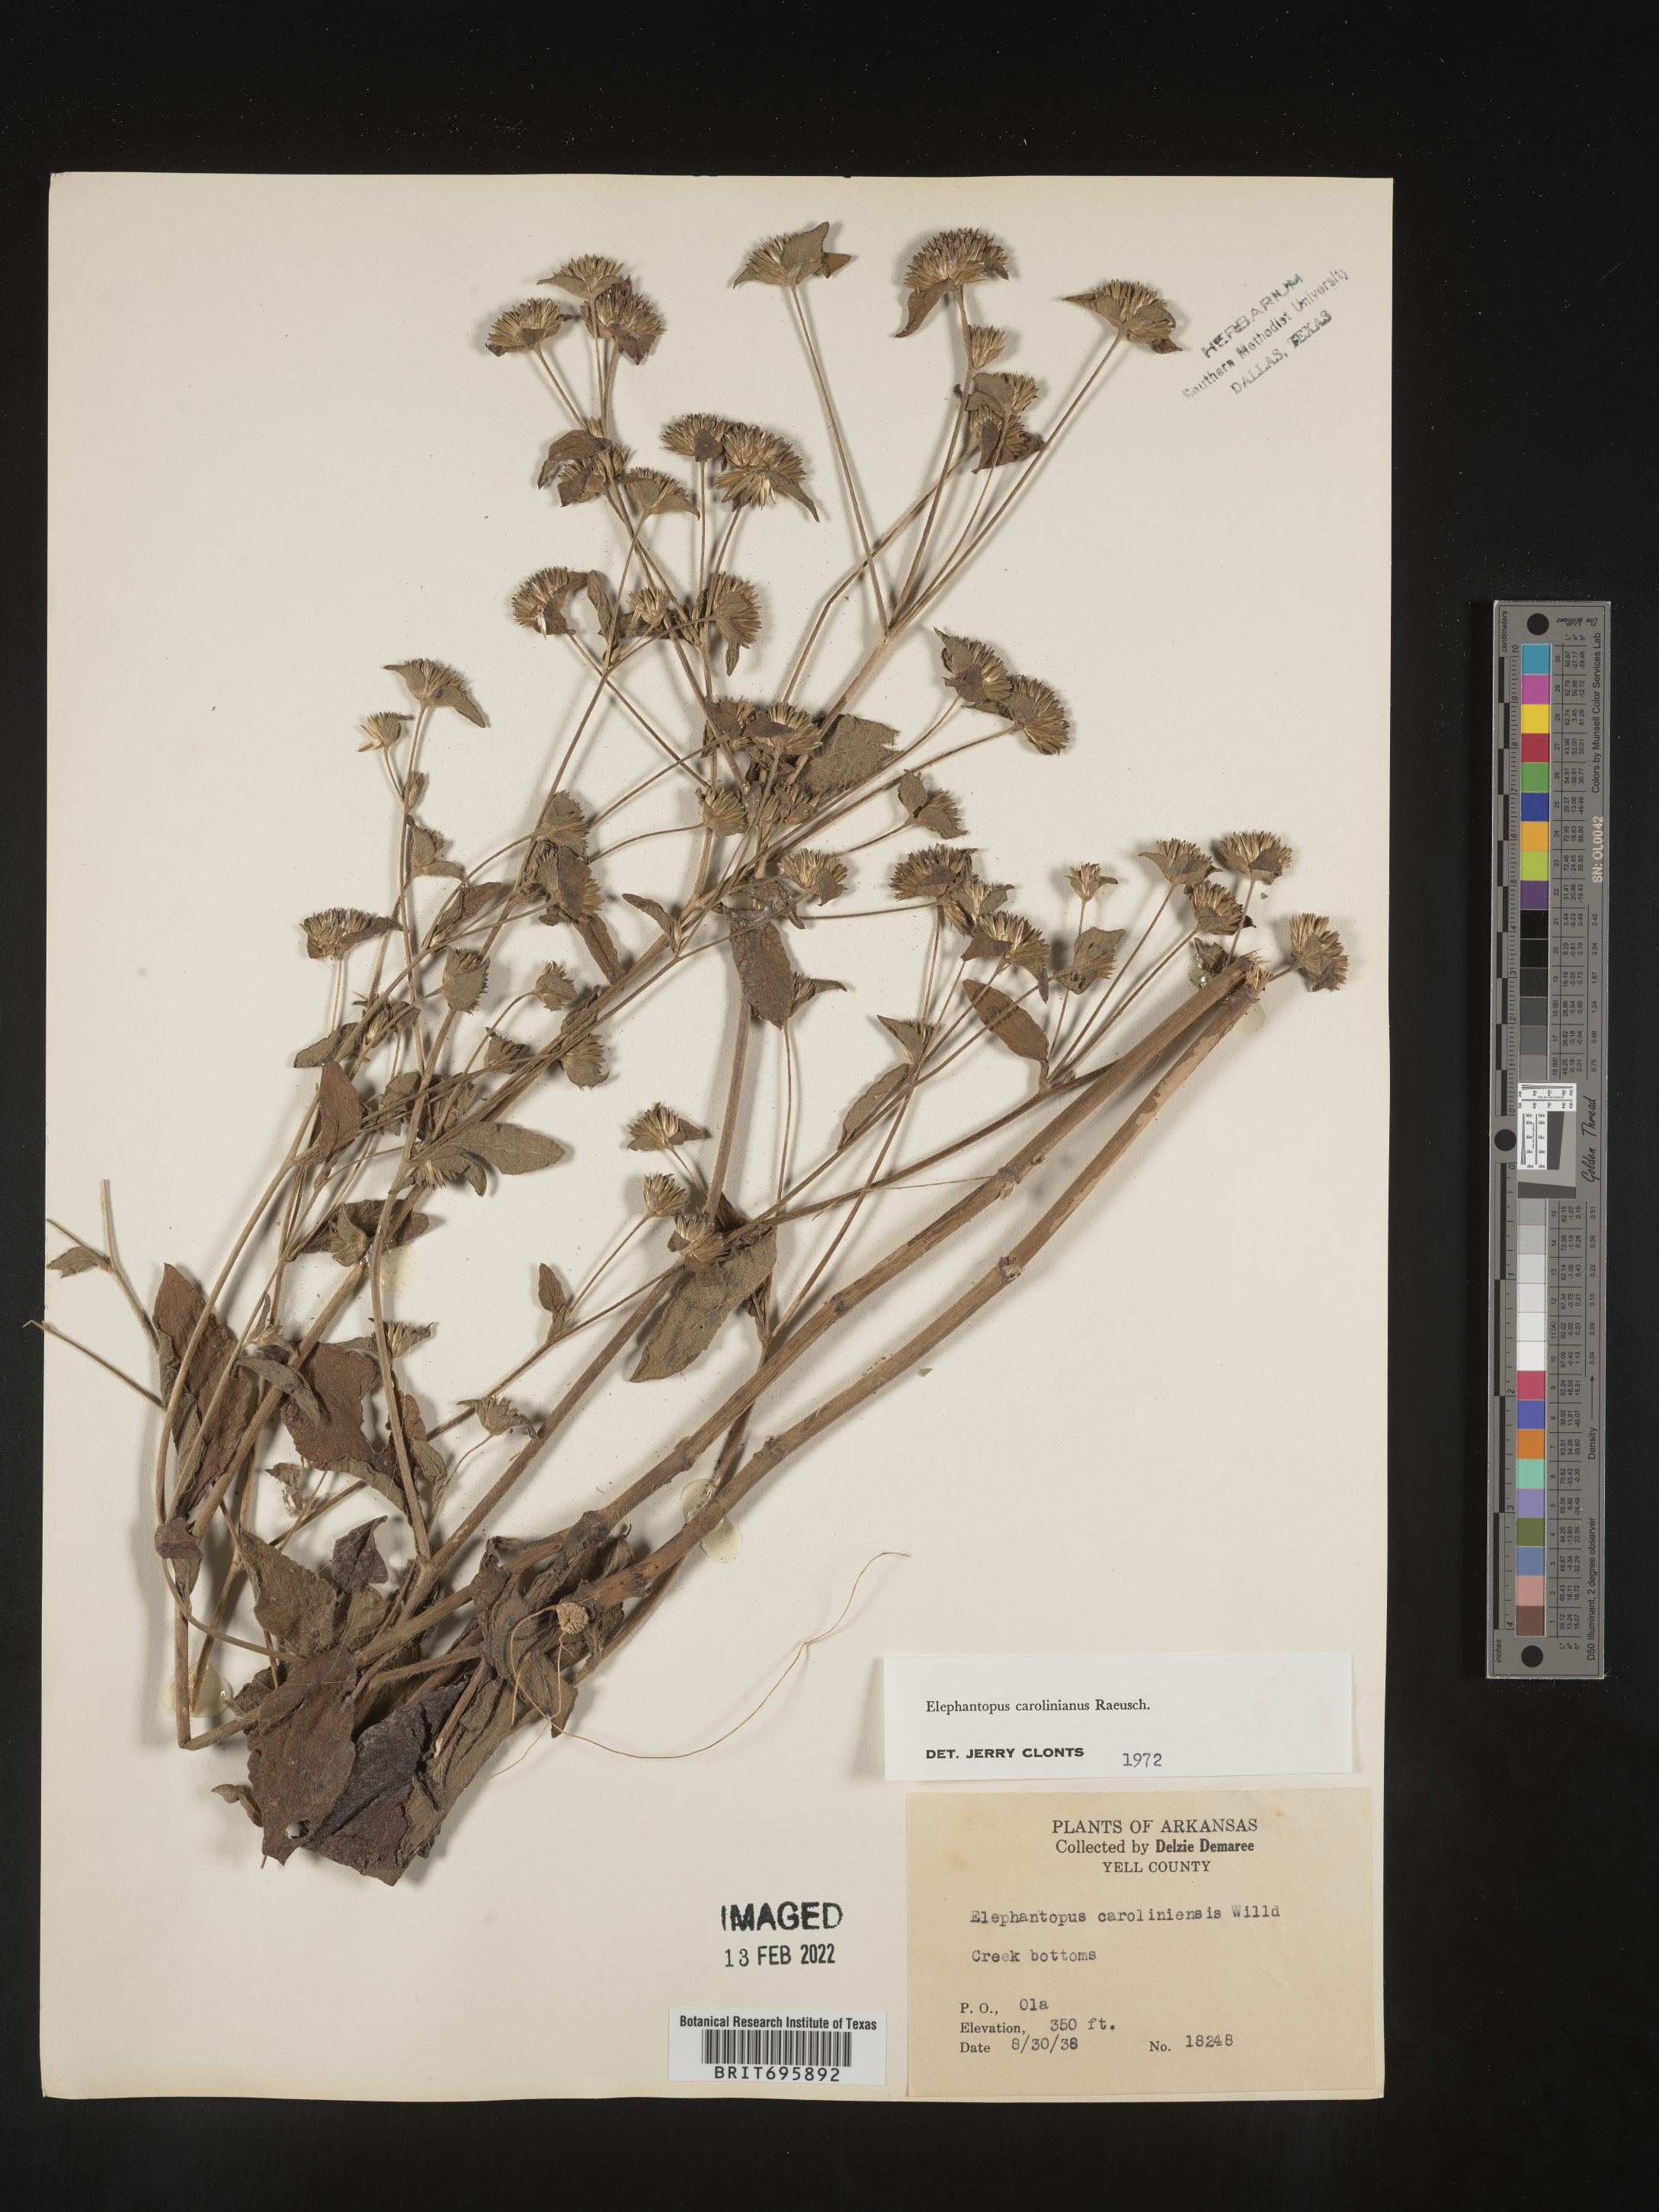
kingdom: Plantae
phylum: Tracheophyta
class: Magnoliopsida
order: Asterales
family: Asteraceae
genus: Elephantopus
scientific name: Elephantopus carolinianus
